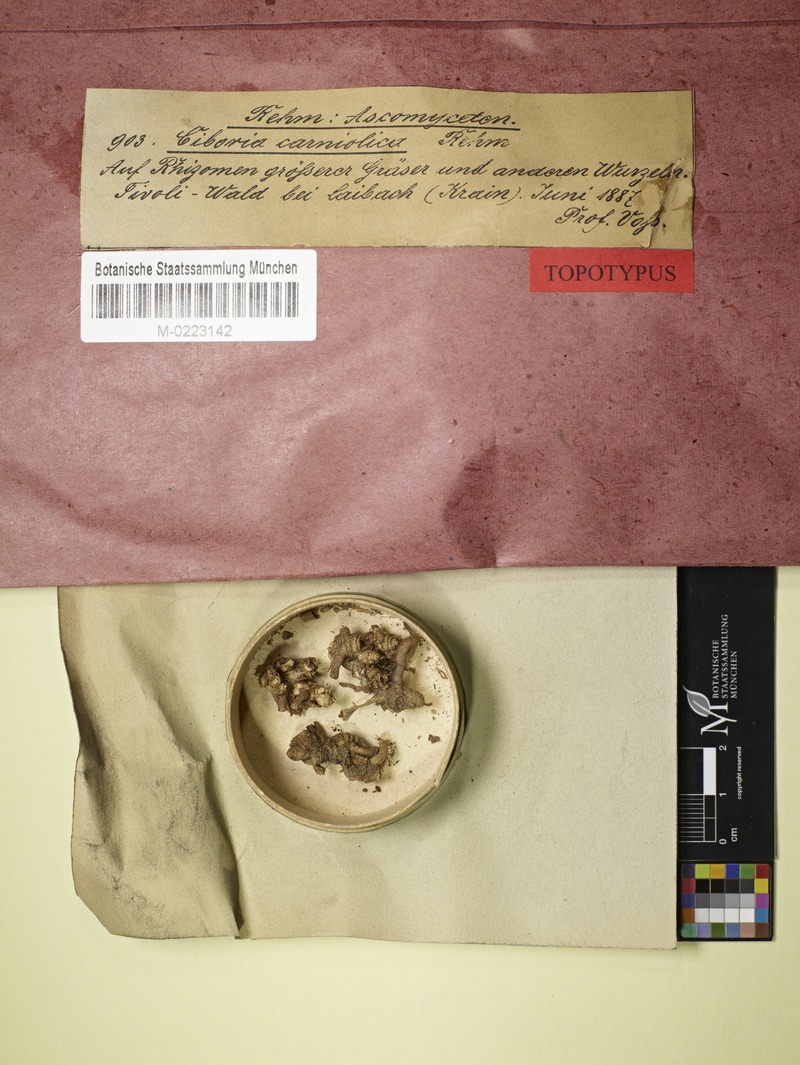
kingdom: Fungi
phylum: Ascomycota
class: Leotiomycetes
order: Helotiales
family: Sclerotiniaceae
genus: Ciboria
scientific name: Ciboria
